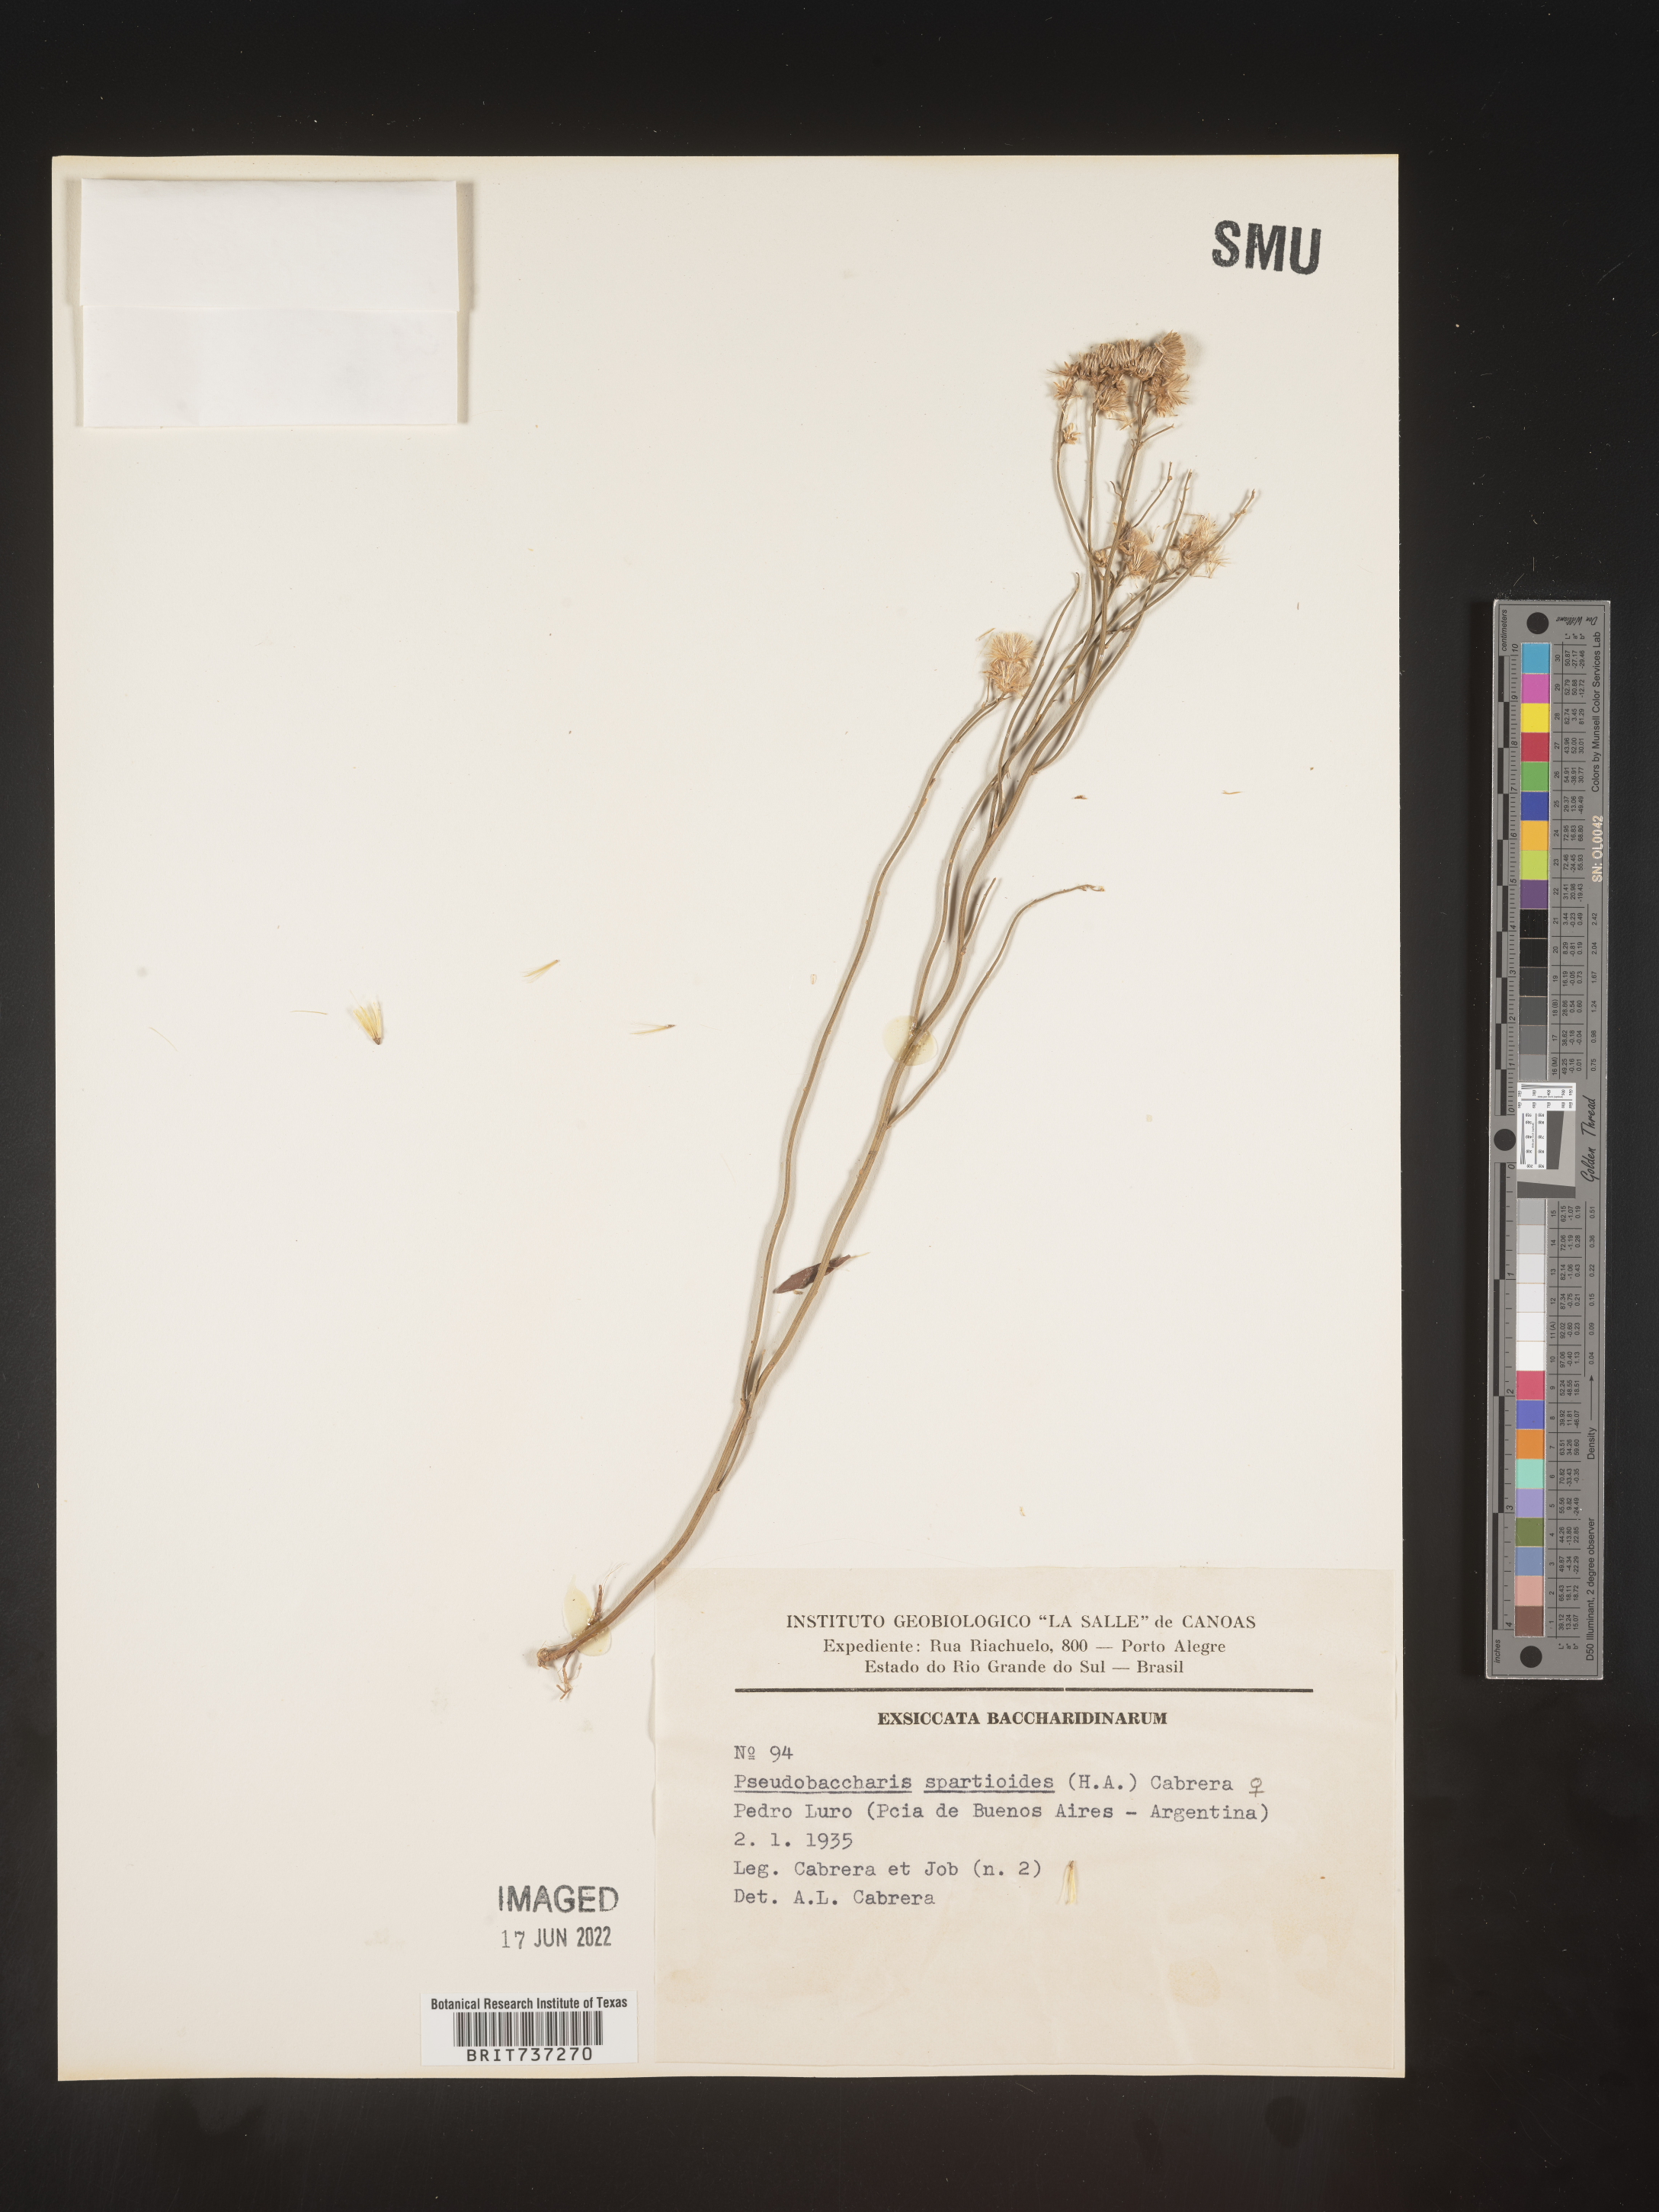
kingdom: Plantae
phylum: Tracheophyta
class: Magnoliopsida
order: Asterales
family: Asteraceae
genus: Pseudobaccharis
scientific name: Pseudobaccharis
